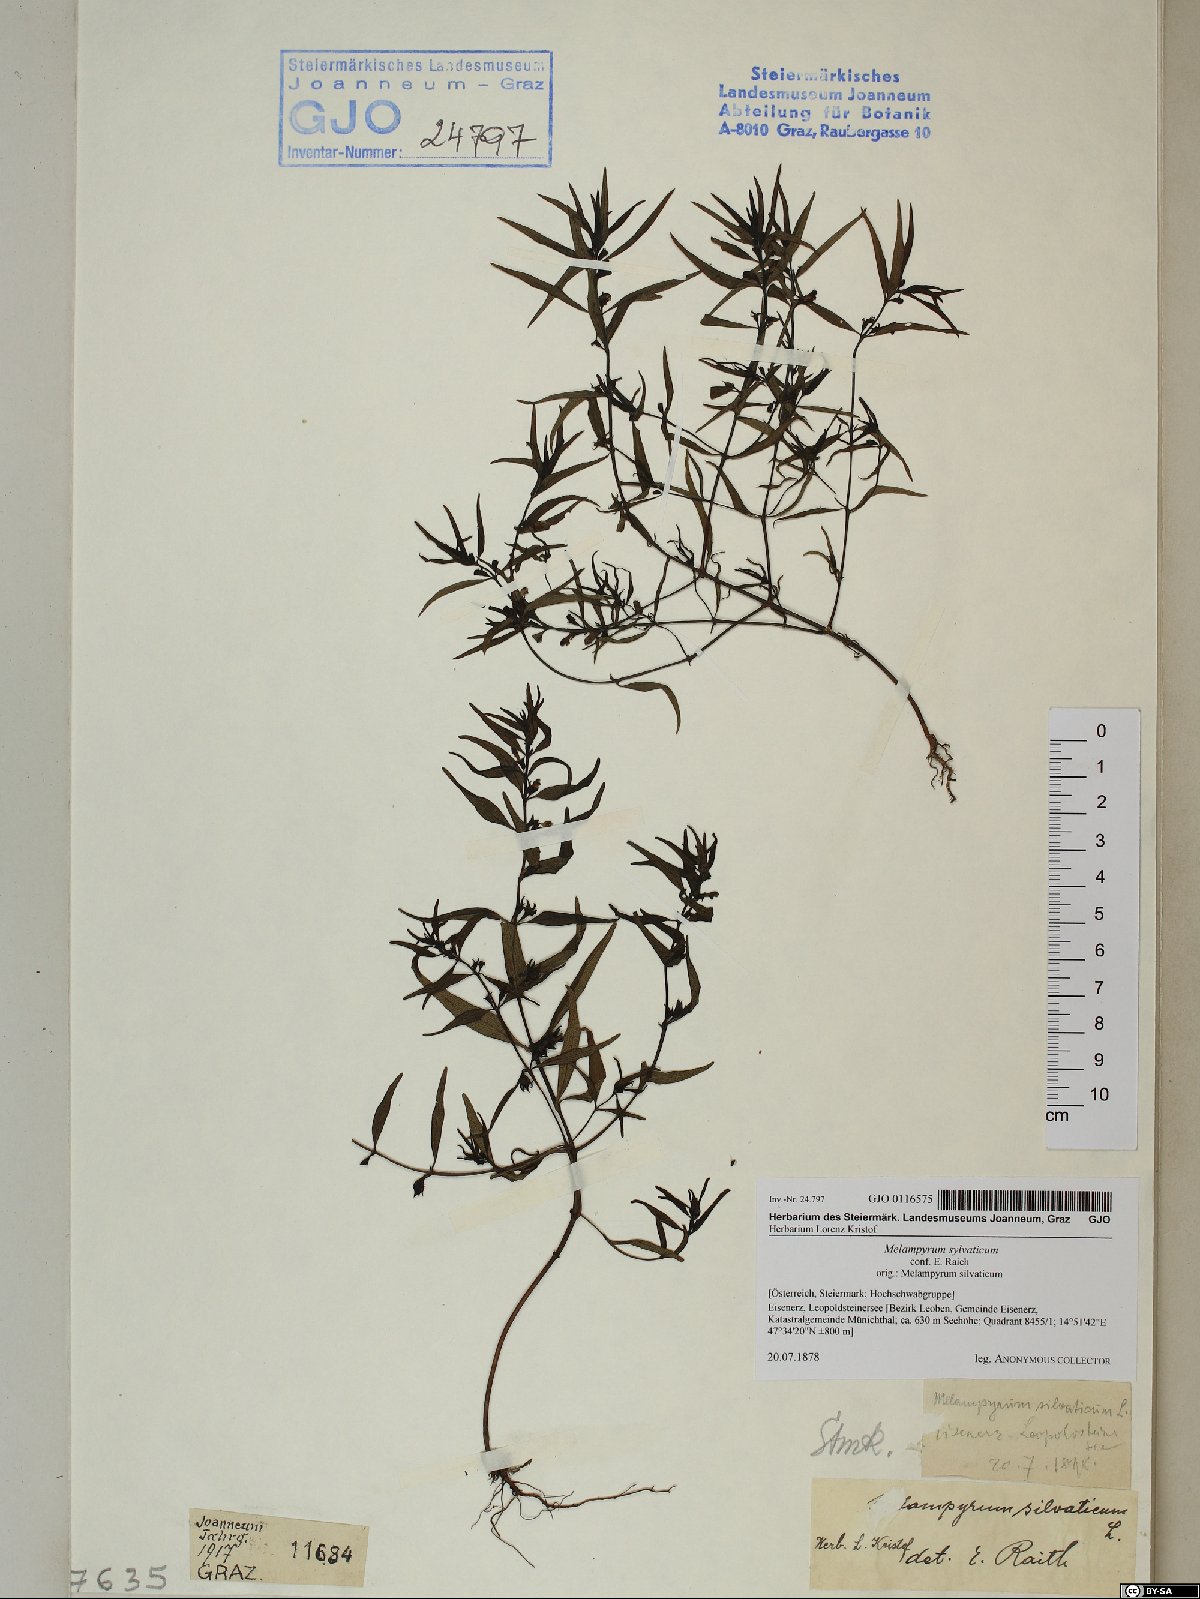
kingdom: Plantae
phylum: Tracheophyta
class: Magnoliopsida
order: Lamiales
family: Orobanchaceae
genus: Melampyrum
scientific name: Melampyrum sylvaticum
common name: Small cow-wheat
